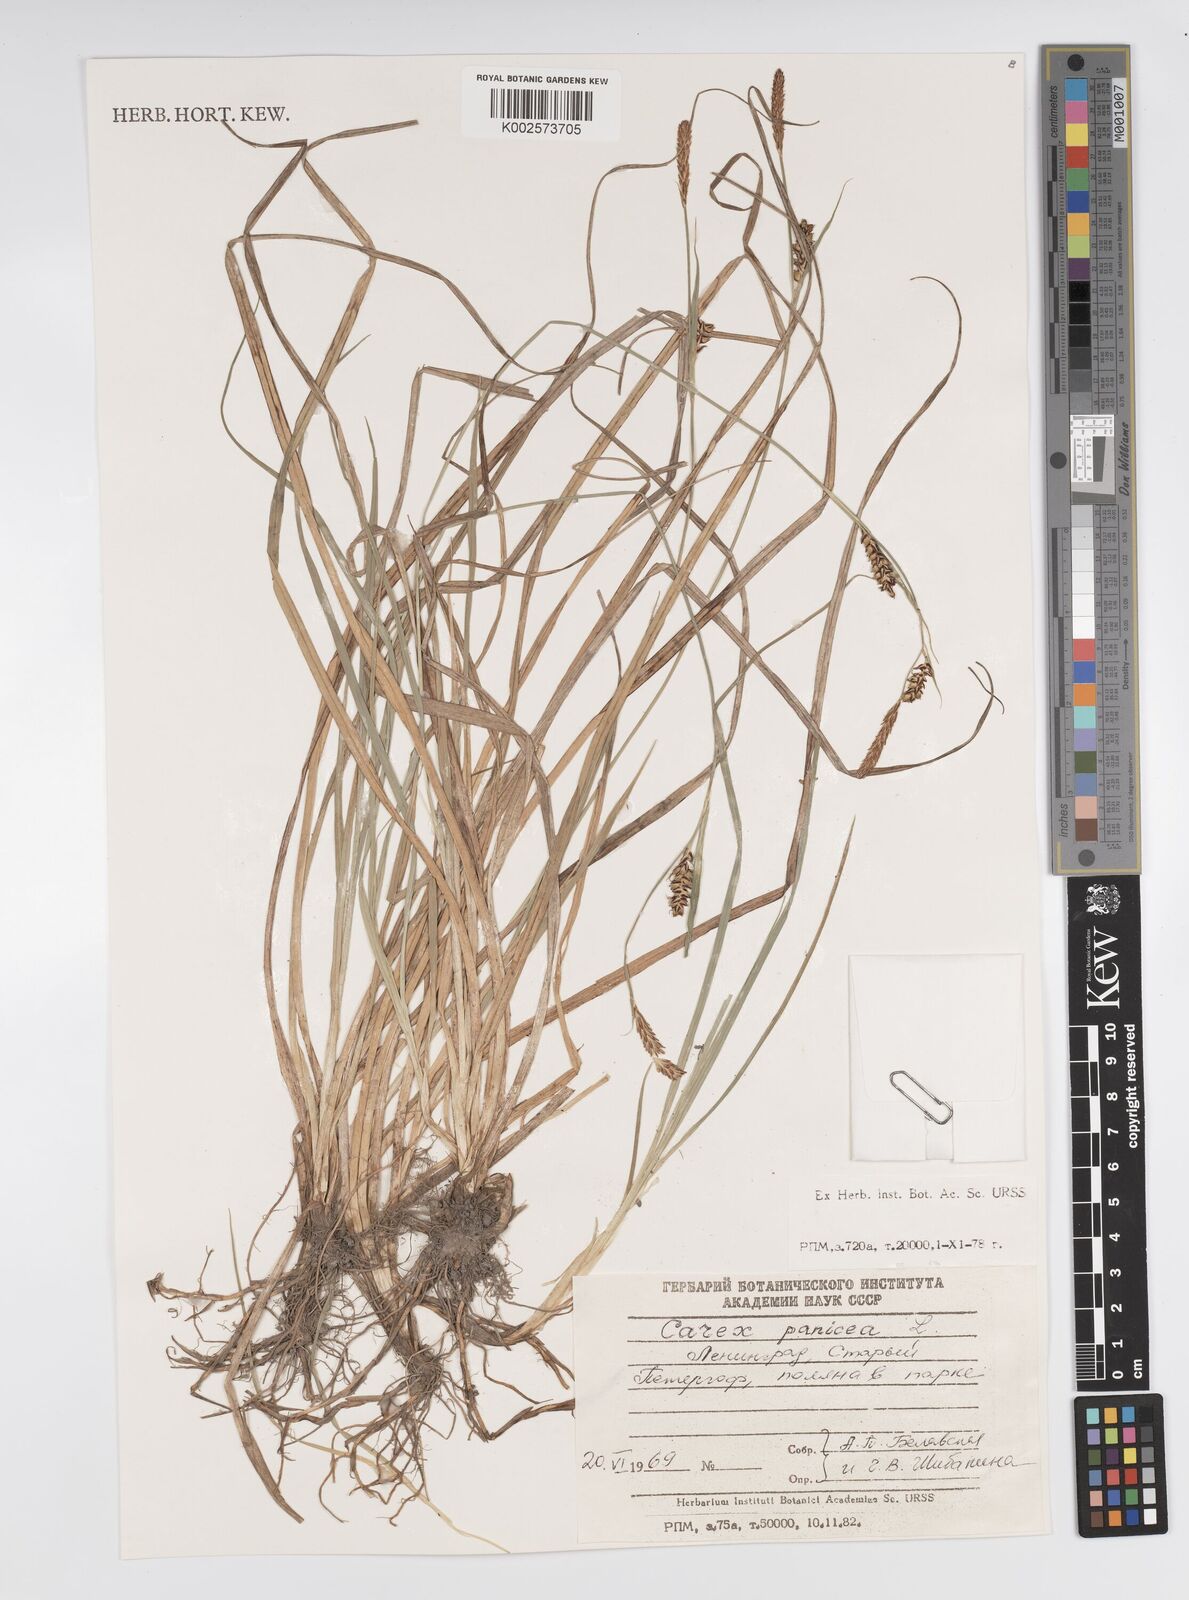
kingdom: Plantae
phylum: Tracheophyta
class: Liliopsida
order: Poales
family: Cyperaceae
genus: Carex
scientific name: Carex panicea
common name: Carnation sedge
